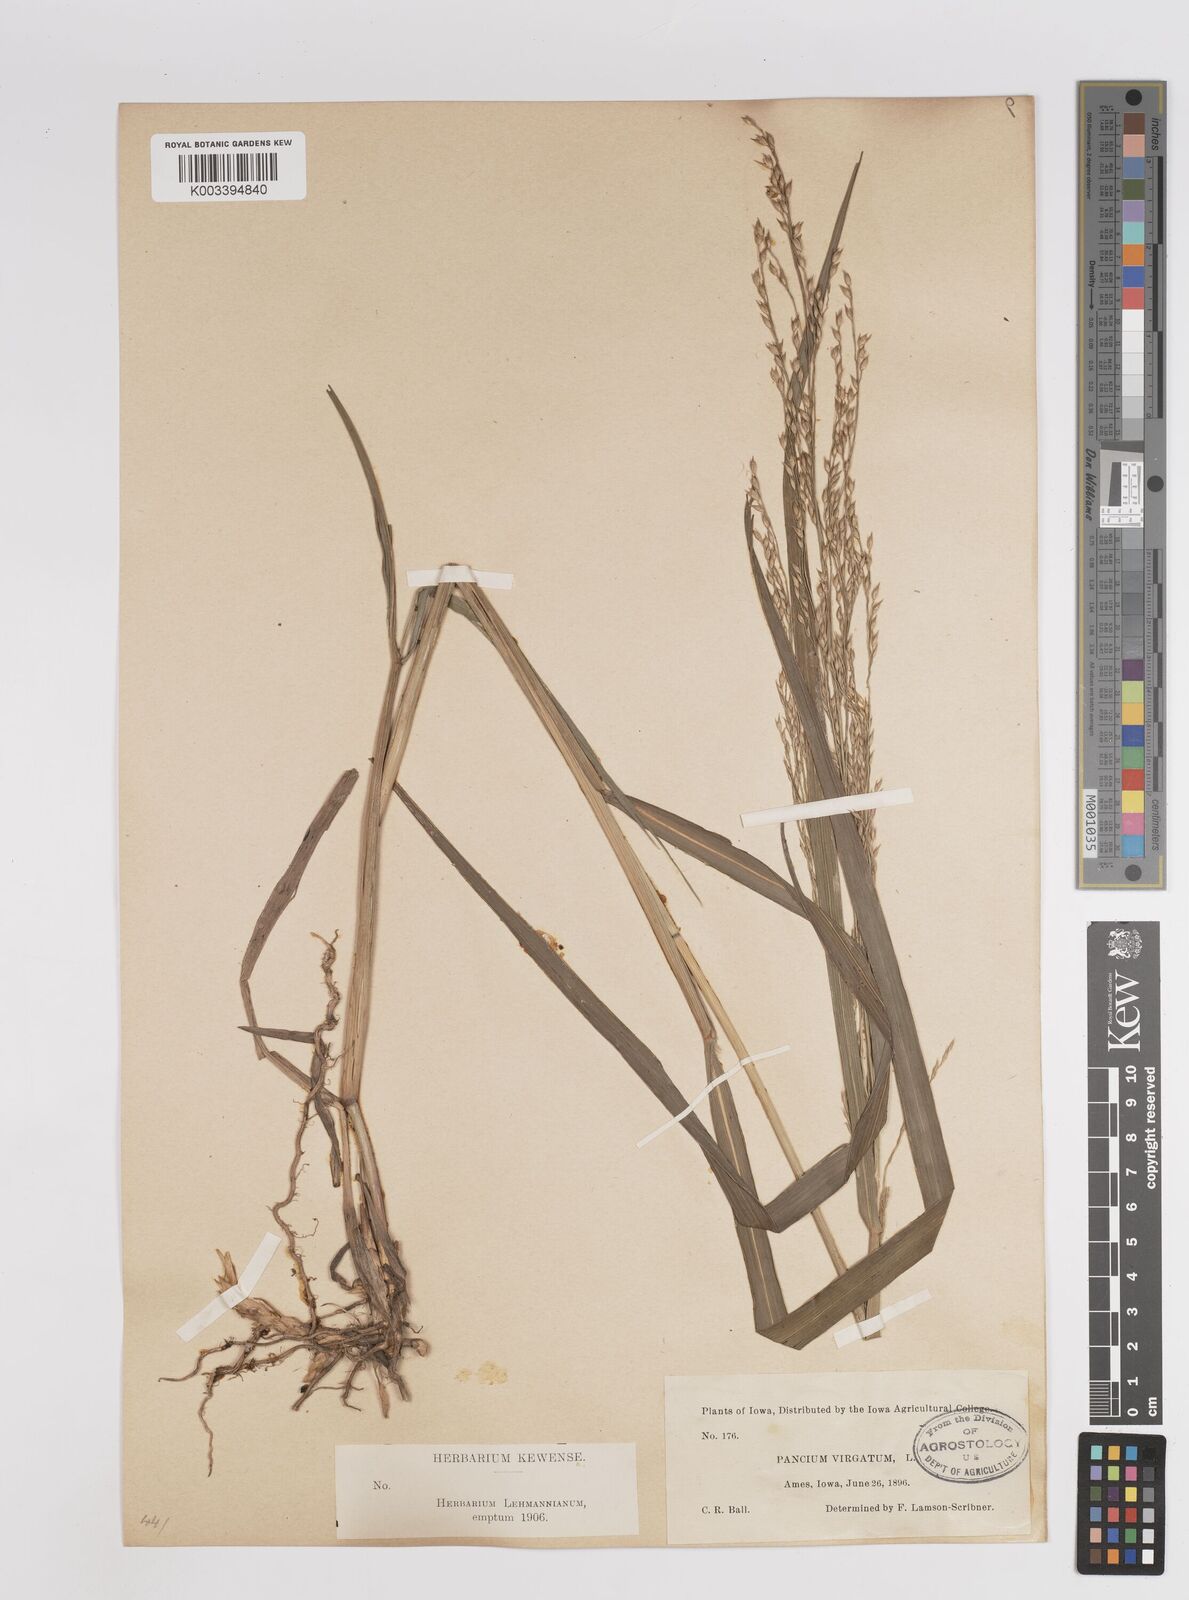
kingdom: Plantae
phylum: Tracheophyta
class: Liliopsida
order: Poales
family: Poaceae
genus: Panicum
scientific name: Panicum virgatum
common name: Switchgrass
